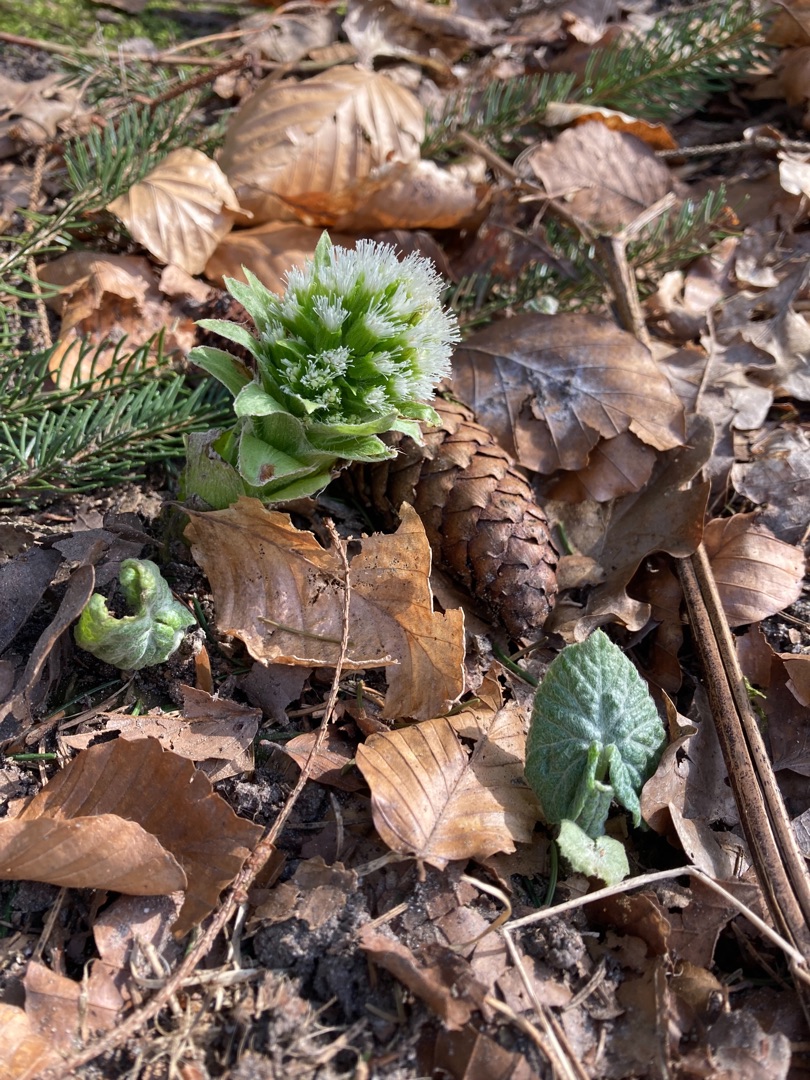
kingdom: Plantae
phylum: Tracheophyta
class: Magnoliopsida
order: Asterales
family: Asteraceae
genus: Petasites
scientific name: Petasites albus
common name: Hvid hestehov
